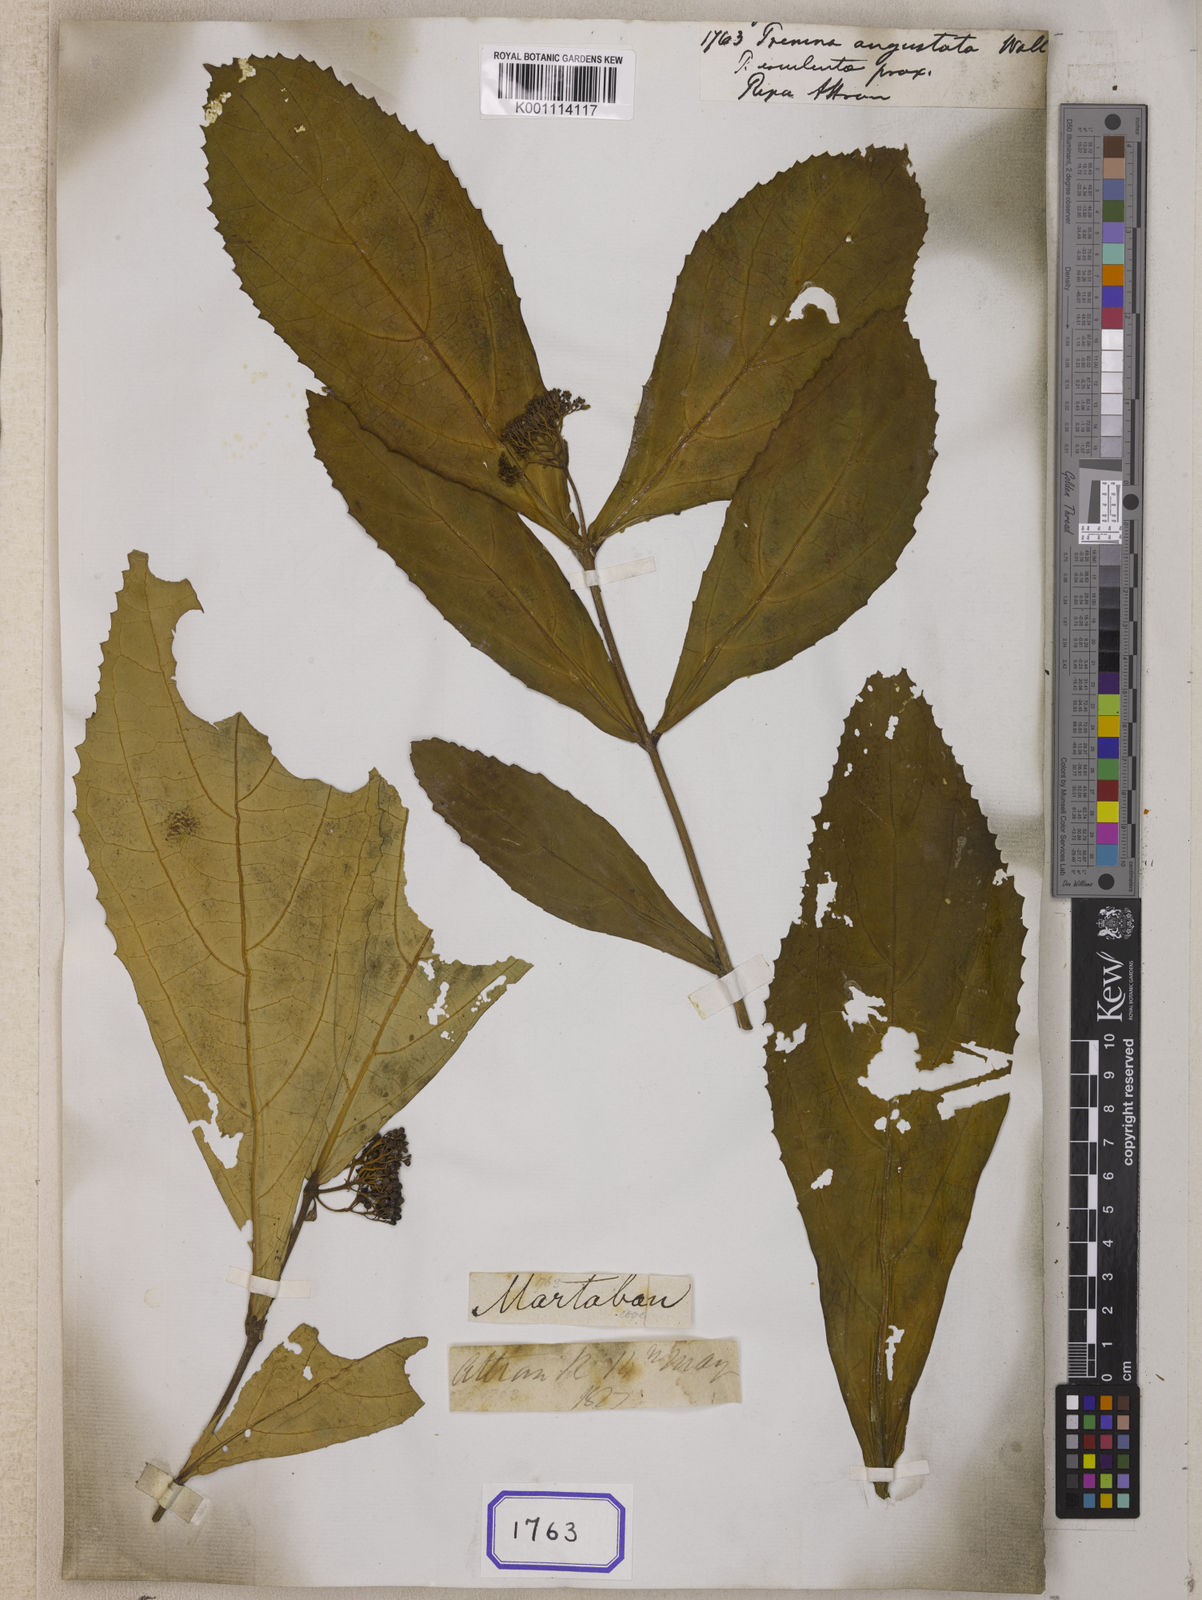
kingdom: Plantae
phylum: Tracheophyta
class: Magnoliopsida
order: Lamiales
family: Lamiaceae
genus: Premna
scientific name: Premna
